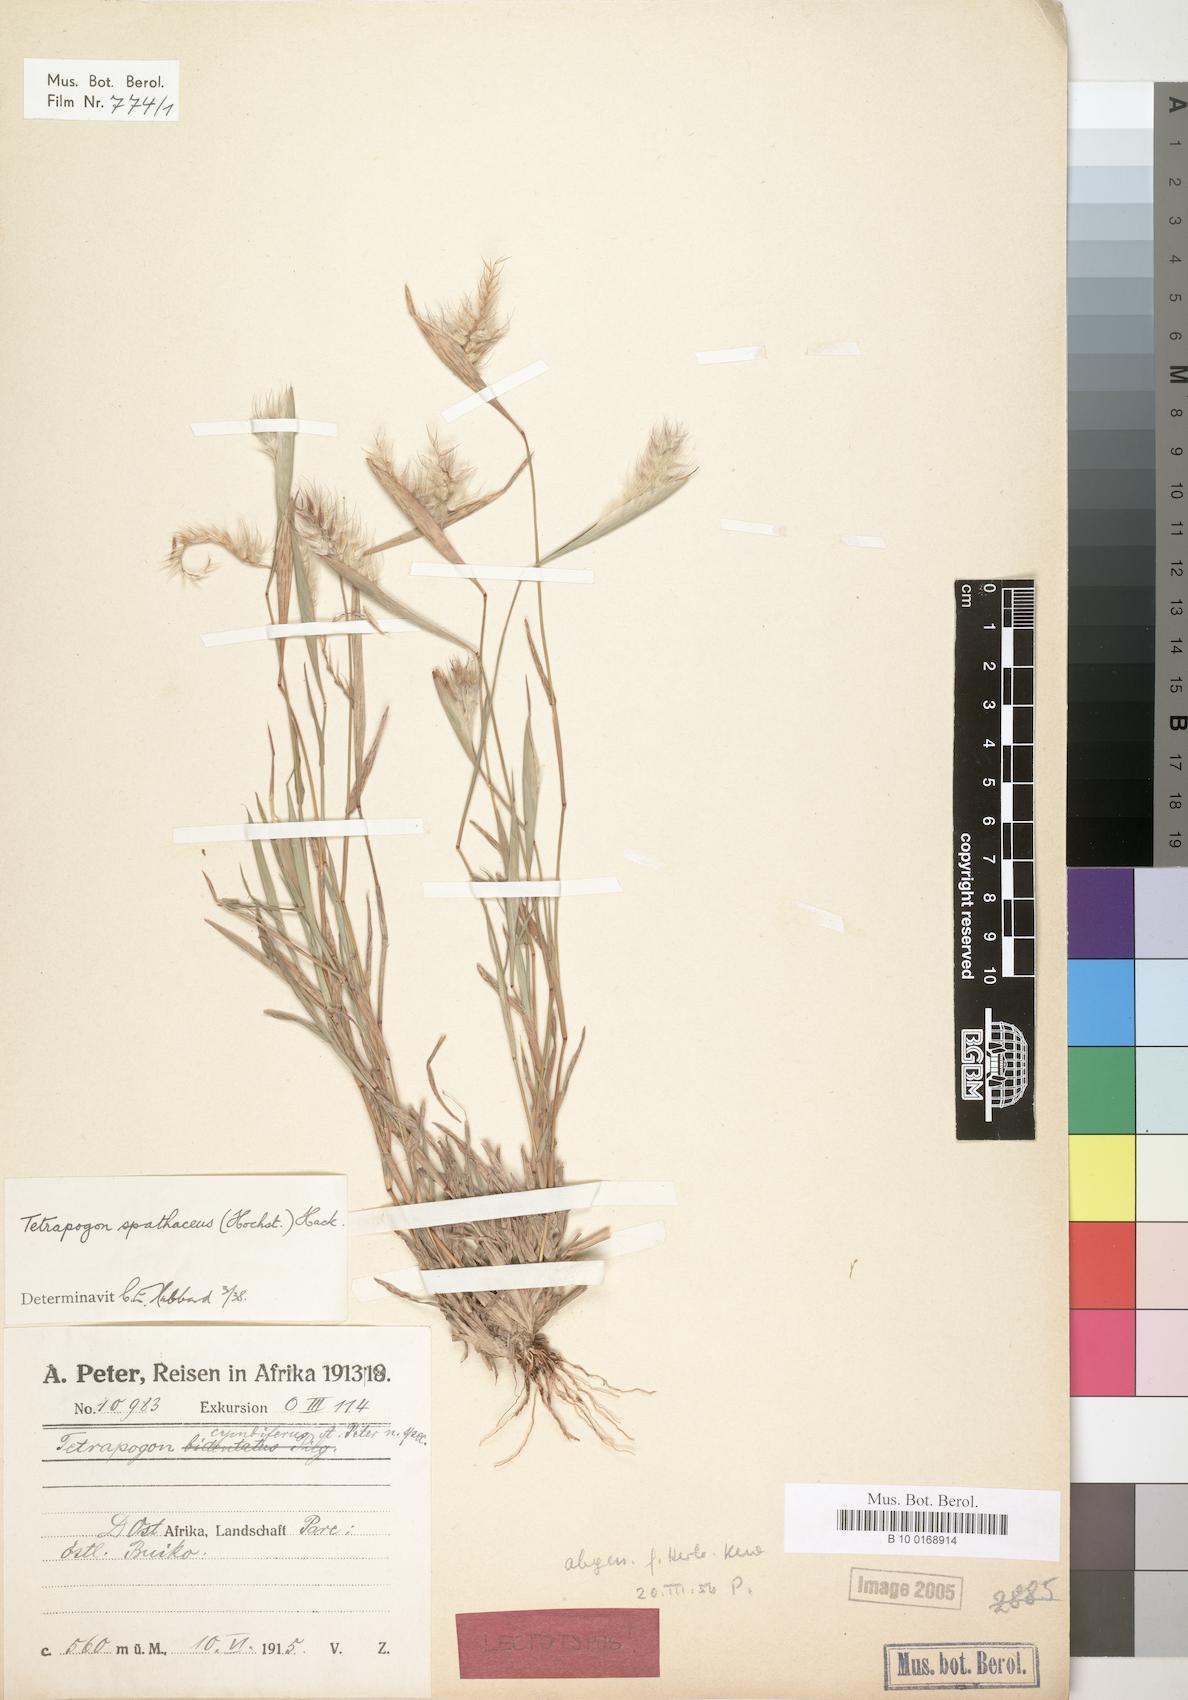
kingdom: Plantae
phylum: Tracheophyta
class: Liliopsida
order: Poales
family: Poaceae
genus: Tetrapogon
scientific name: Tetrapogon cenchriformis
